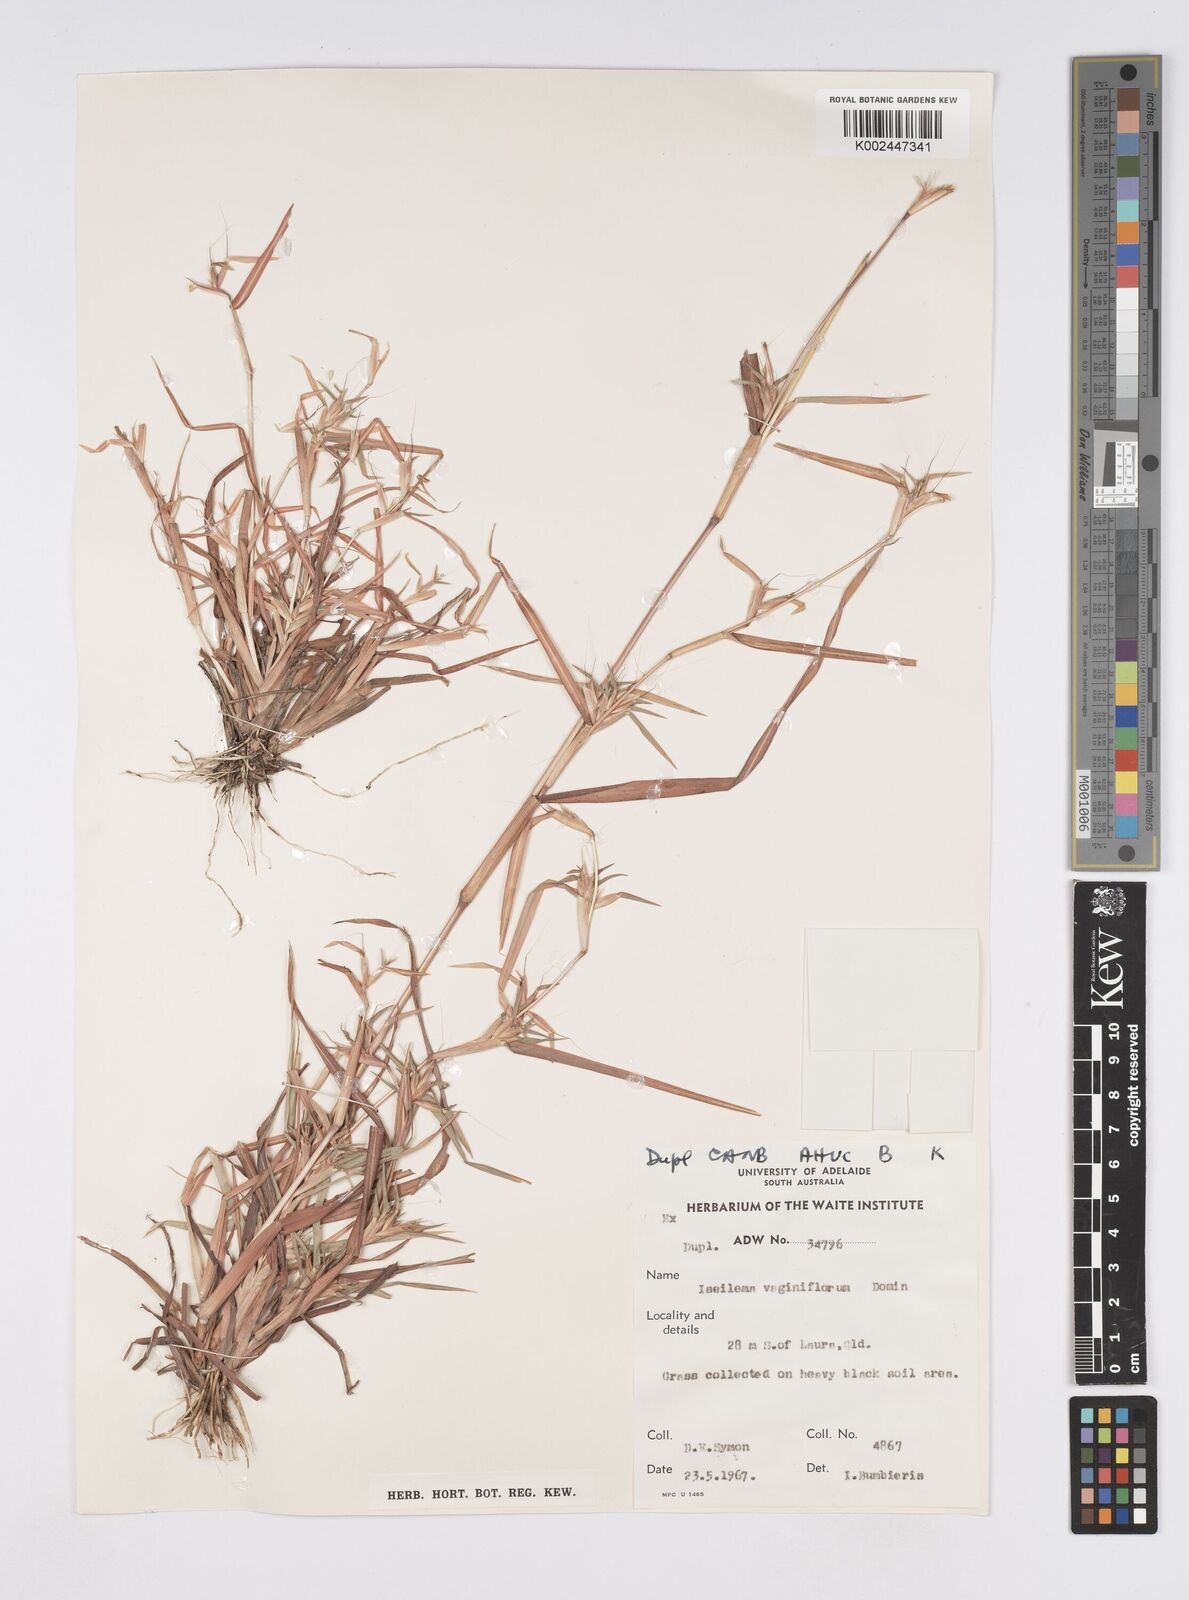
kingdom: Plantae
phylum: Tracheophyta
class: Liliopsida
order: Poales
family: Poaceae
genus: Iseilema
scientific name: Iseilema vaginiflorum
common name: Red flinders grass
